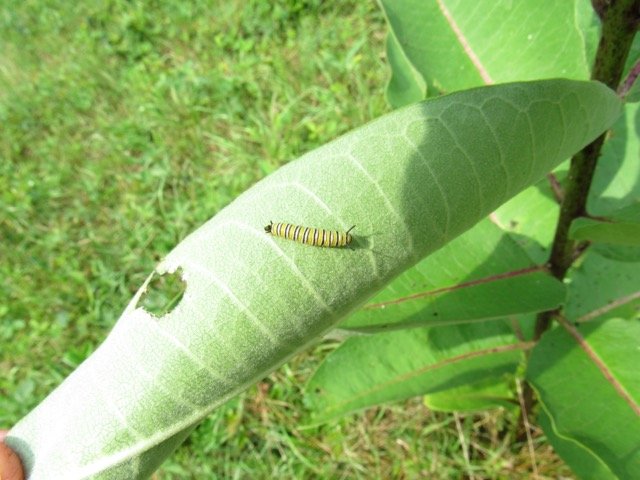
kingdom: Animalia
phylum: Arthropoda
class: Insecta
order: Lepidoptera
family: Nymphalidae
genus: Danaus
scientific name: Danaus plexippus
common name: Monarch
